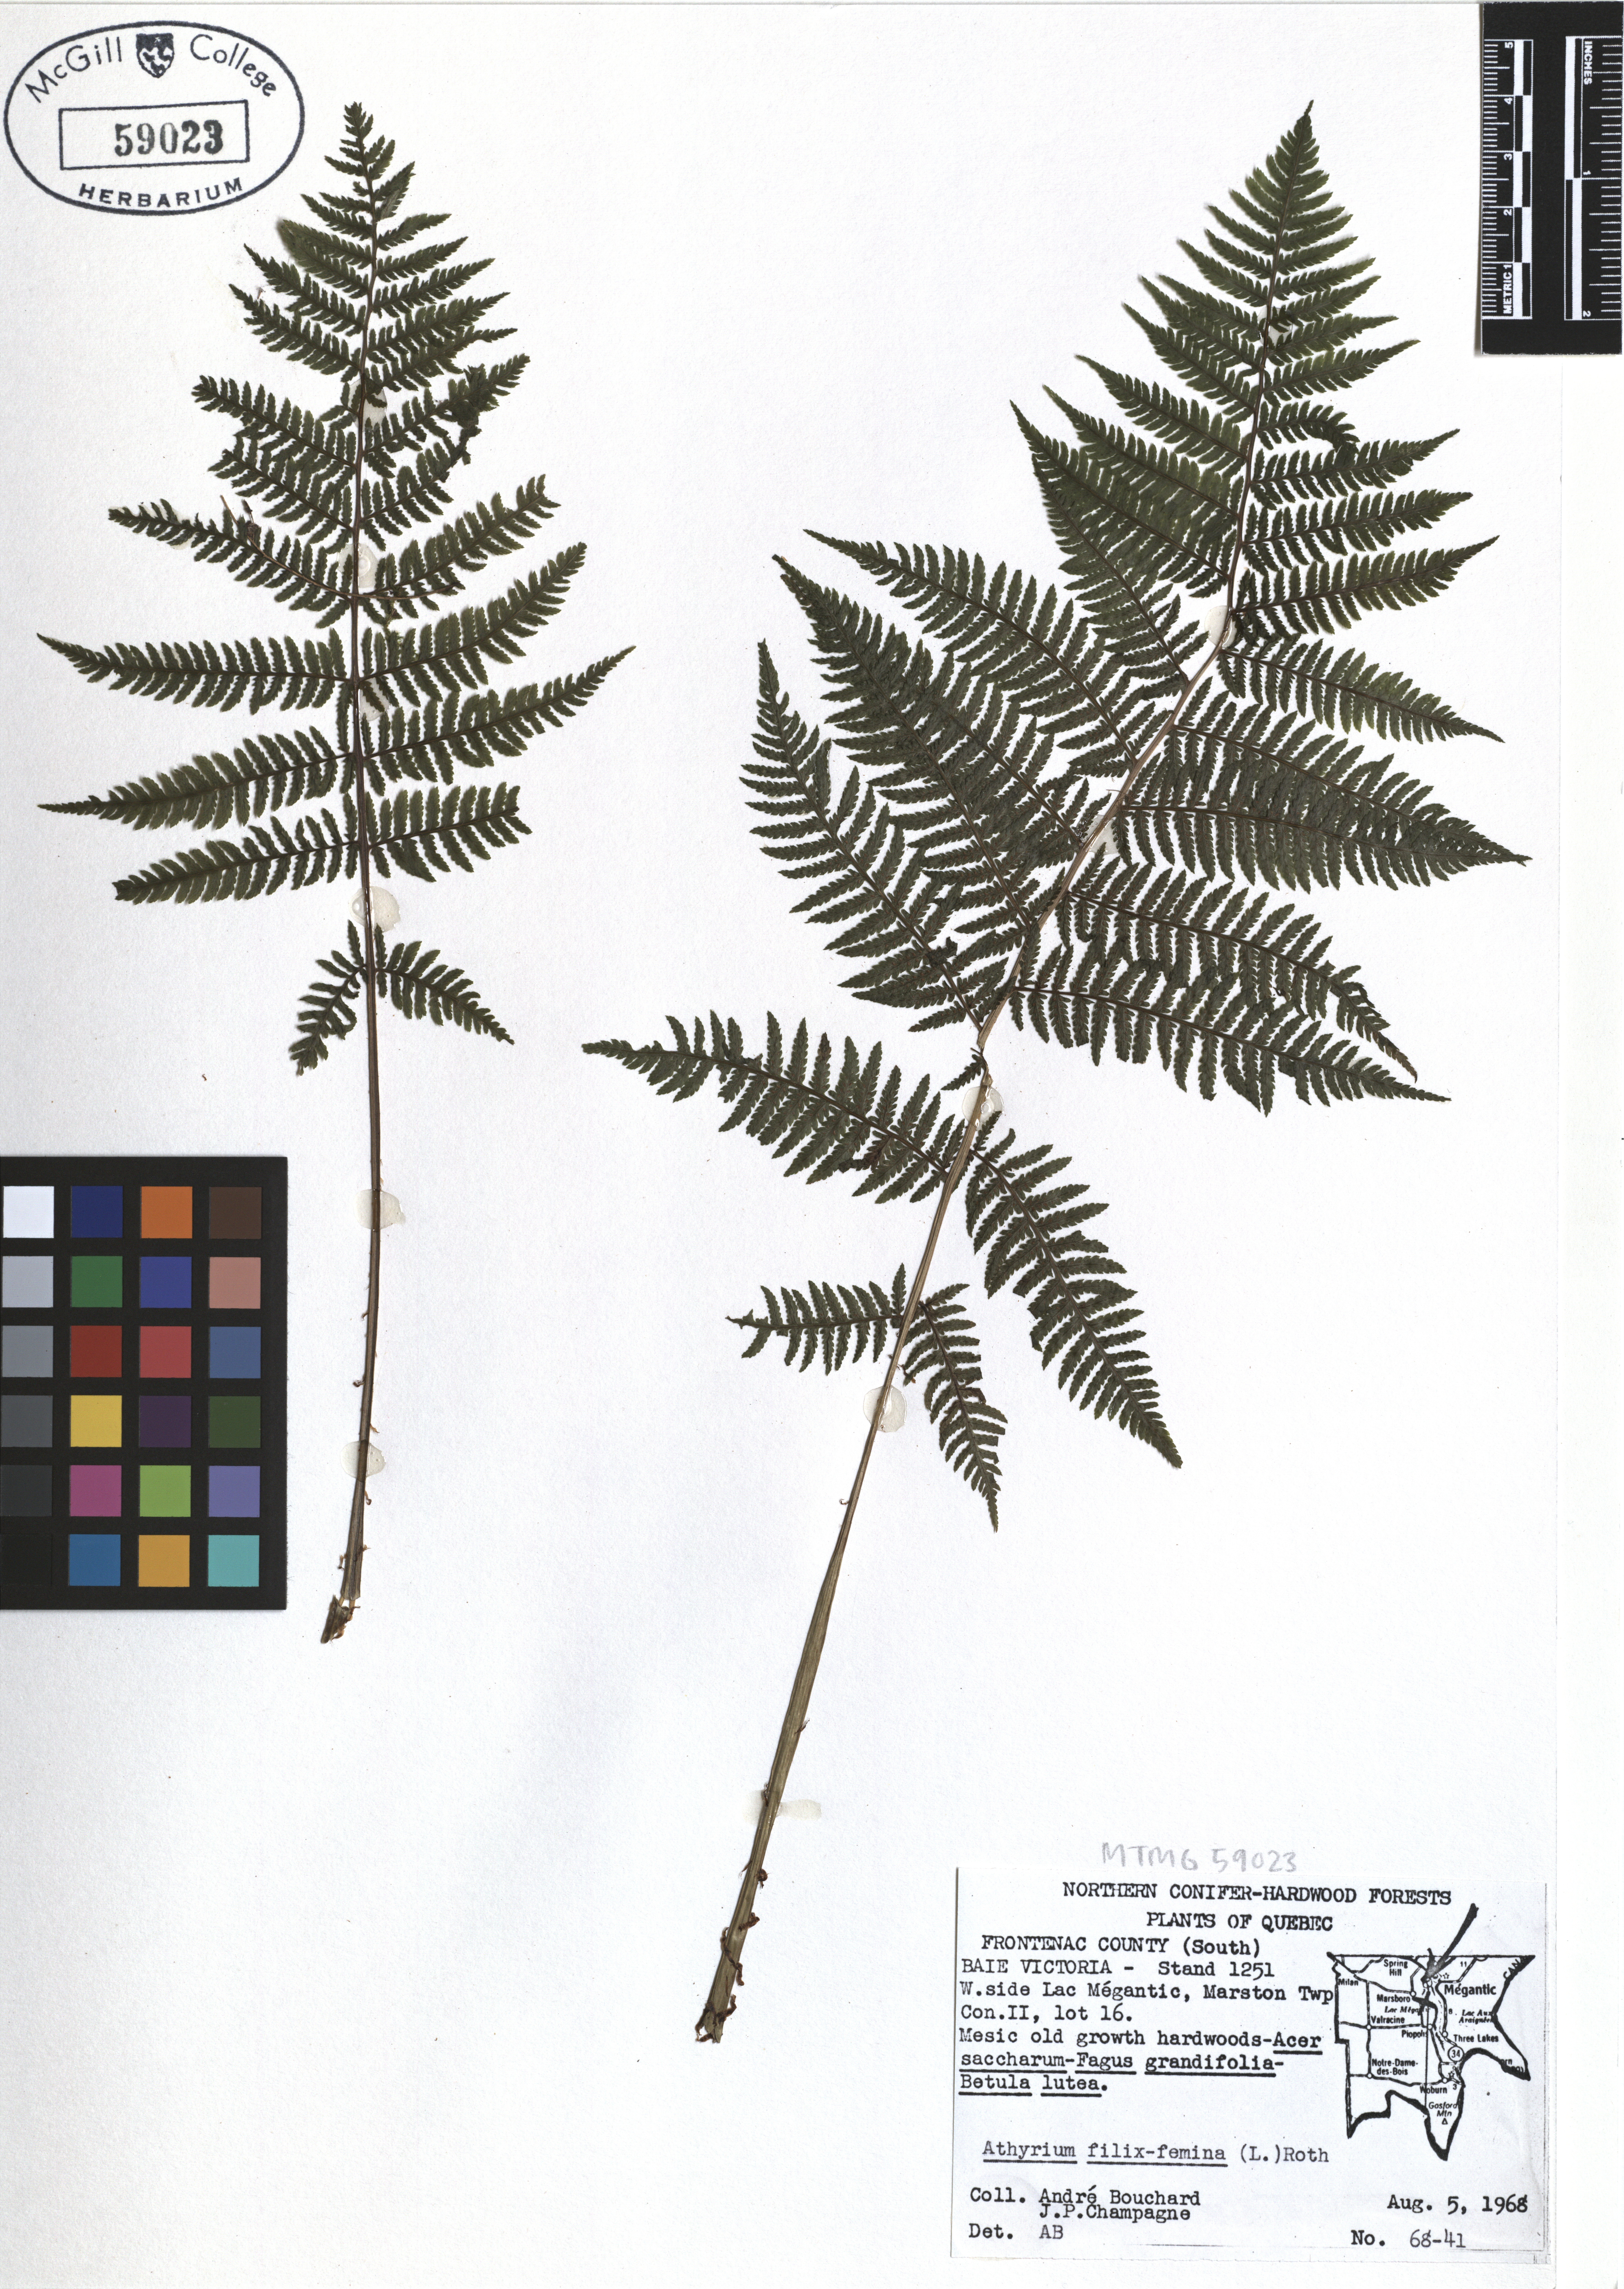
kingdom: Plantae
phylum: Tracheophyta
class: Polypodiopsida
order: Polypodiales
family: Athyriaceae
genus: Athyrium
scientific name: Athyrium filix-femina
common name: Lady fern
